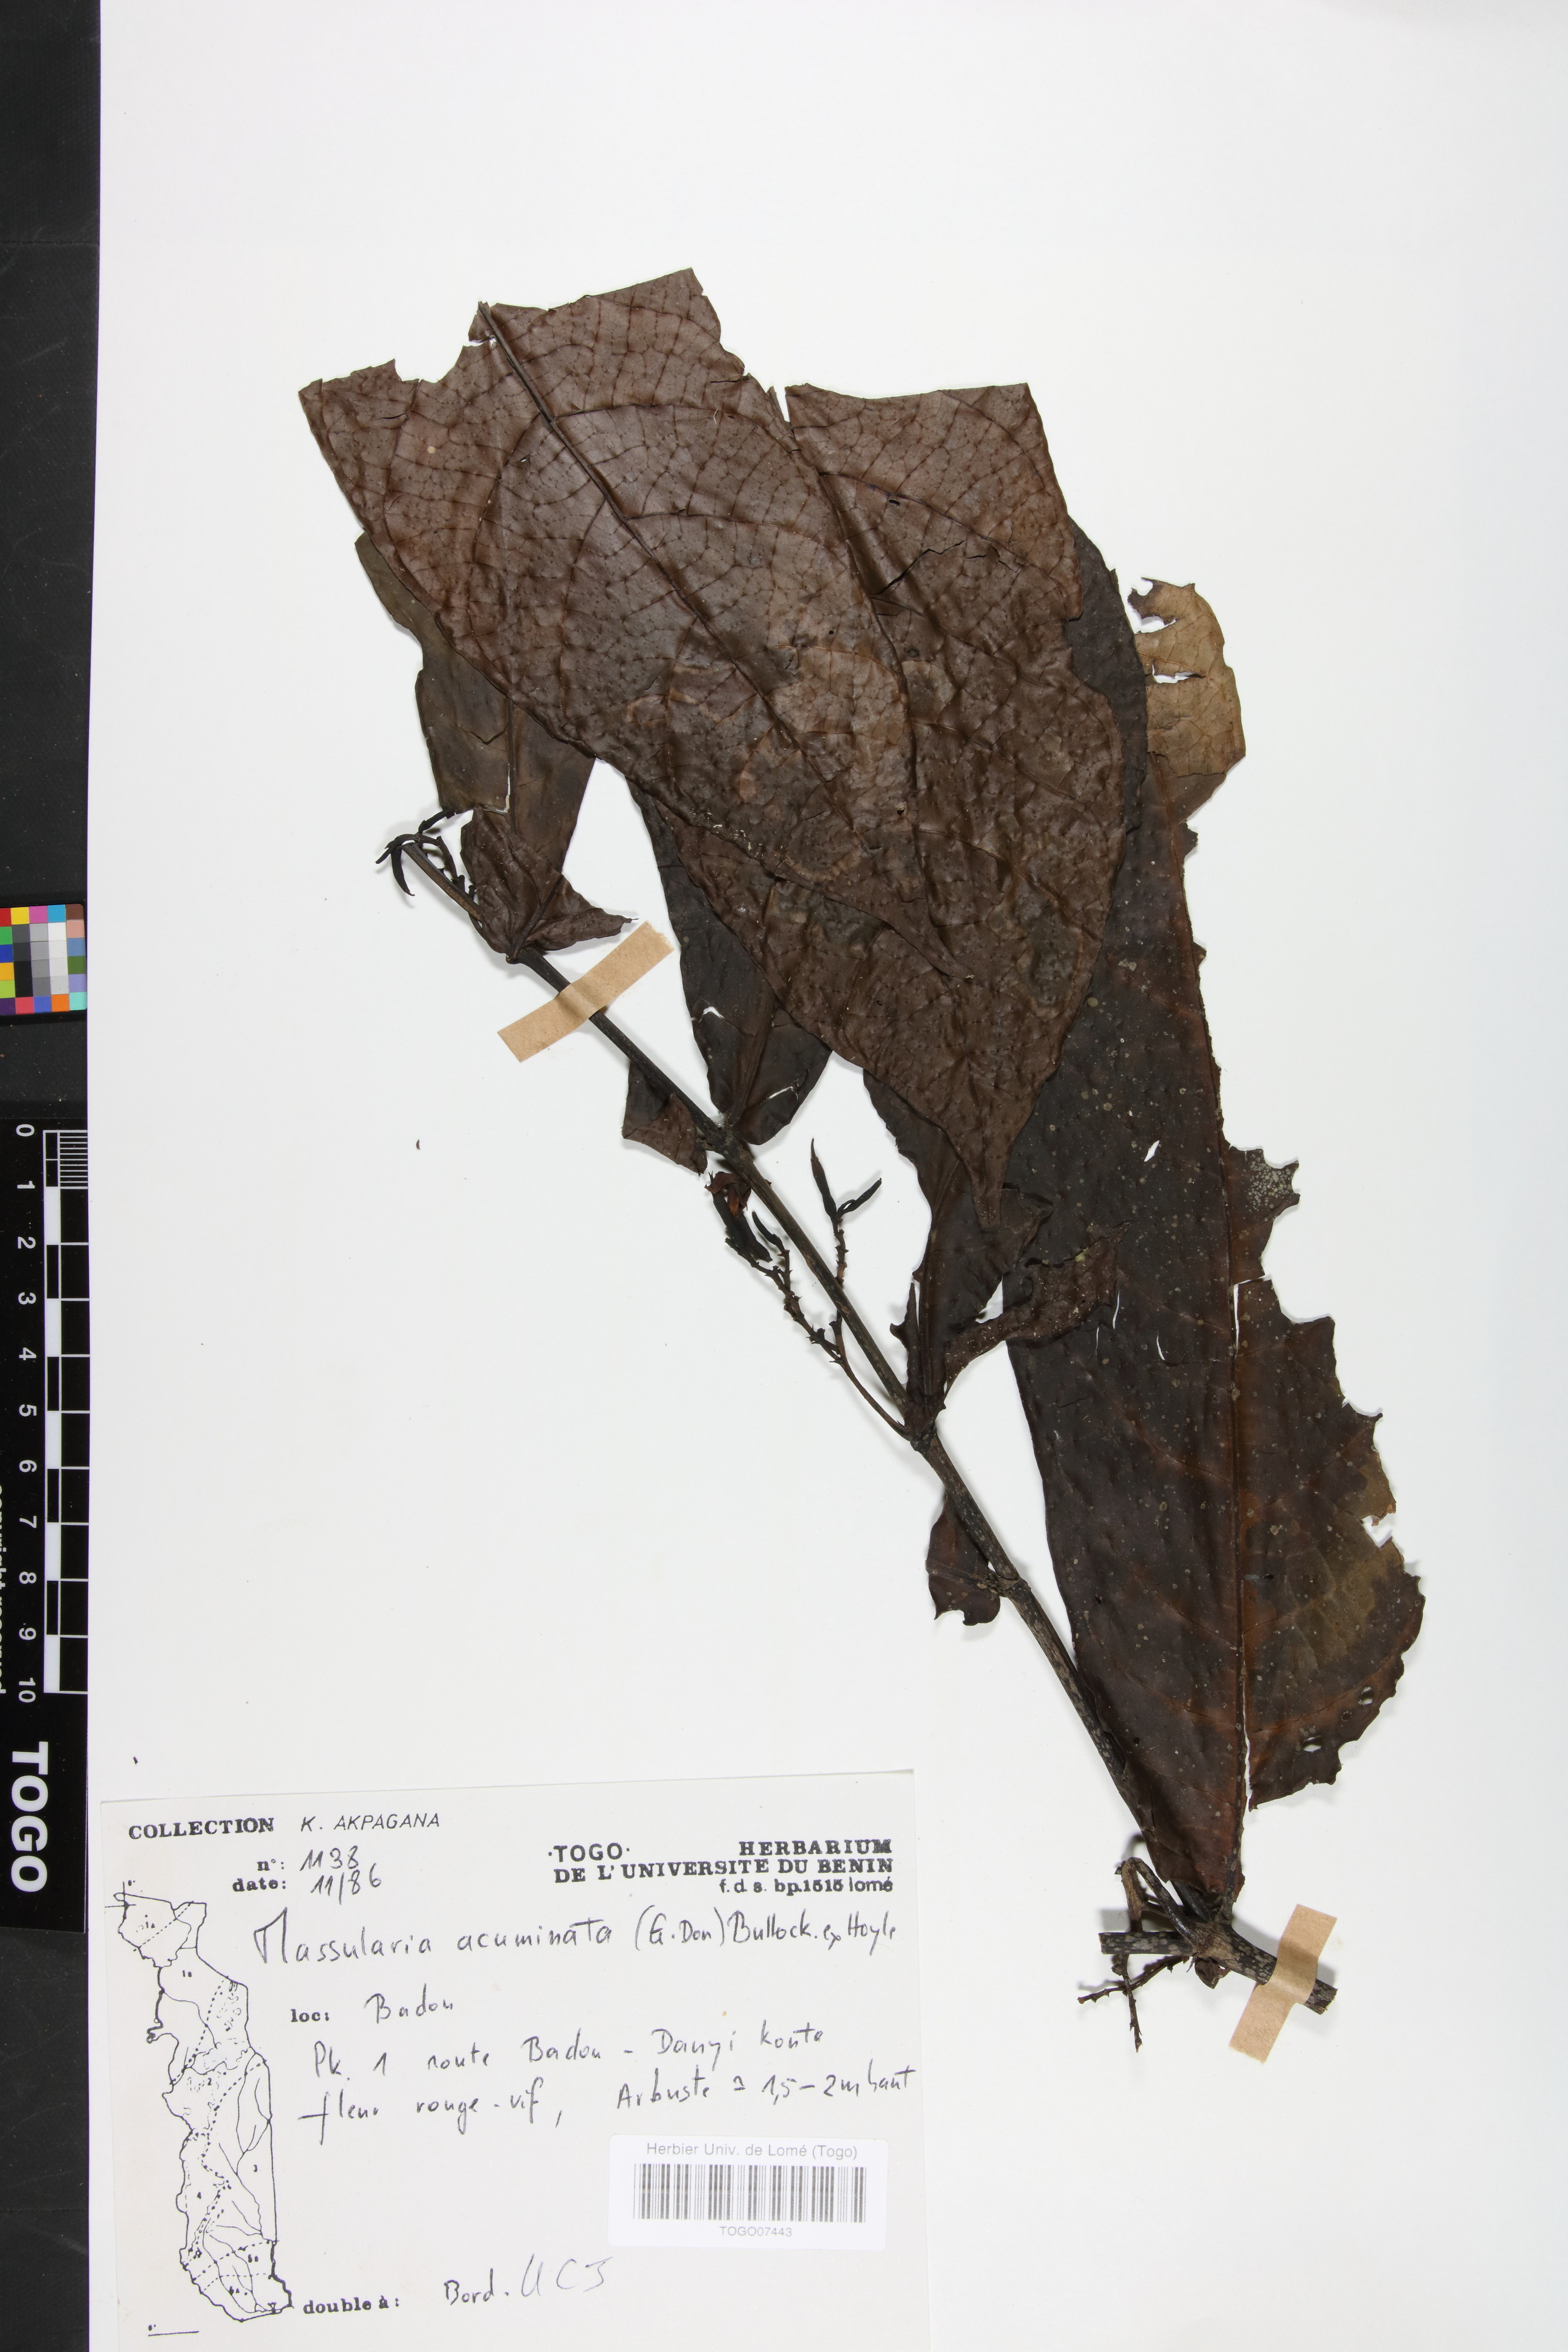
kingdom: Plantae
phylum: Tracheophyta
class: Magnoliopsida
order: Gentianales
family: Rubiaceae
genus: Massularia
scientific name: Massularia acuminata
